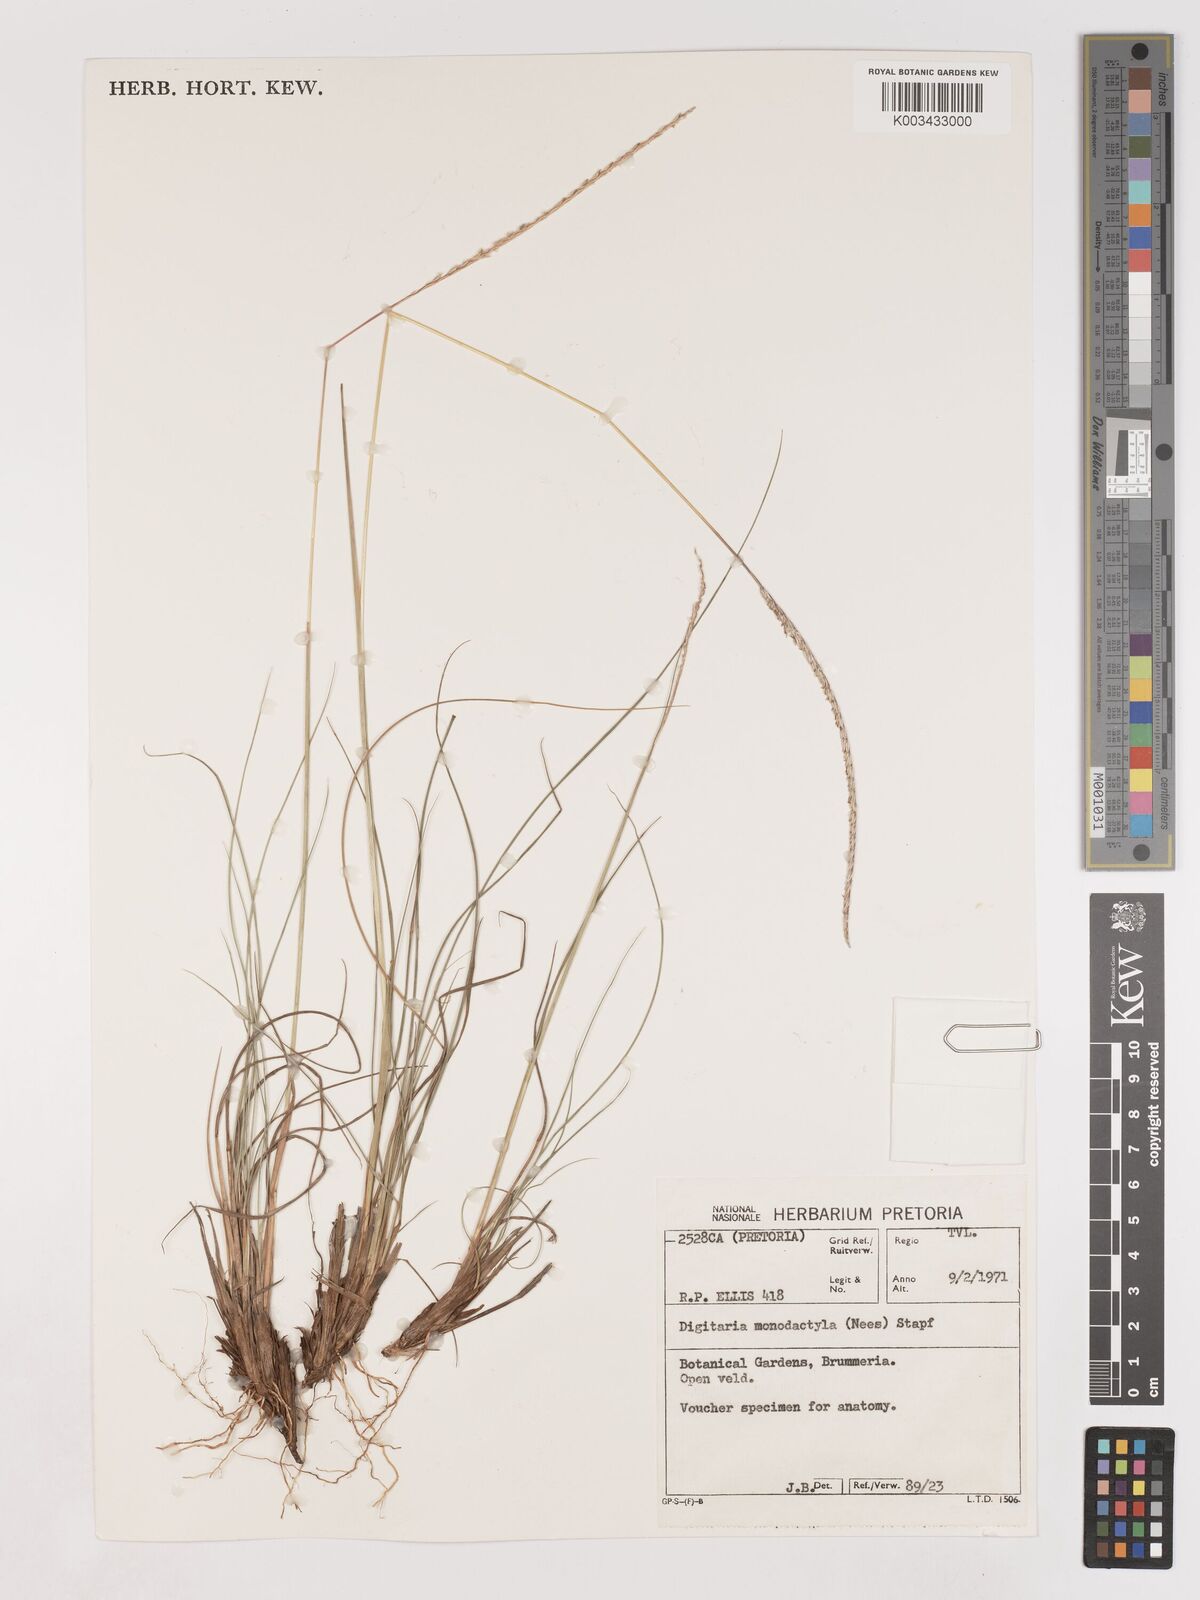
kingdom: Plantae
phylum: Tracheophyta
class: Liliopsida
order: Poales
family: Poaceae
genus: Digitaria
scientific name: Digitaria monodactyla
